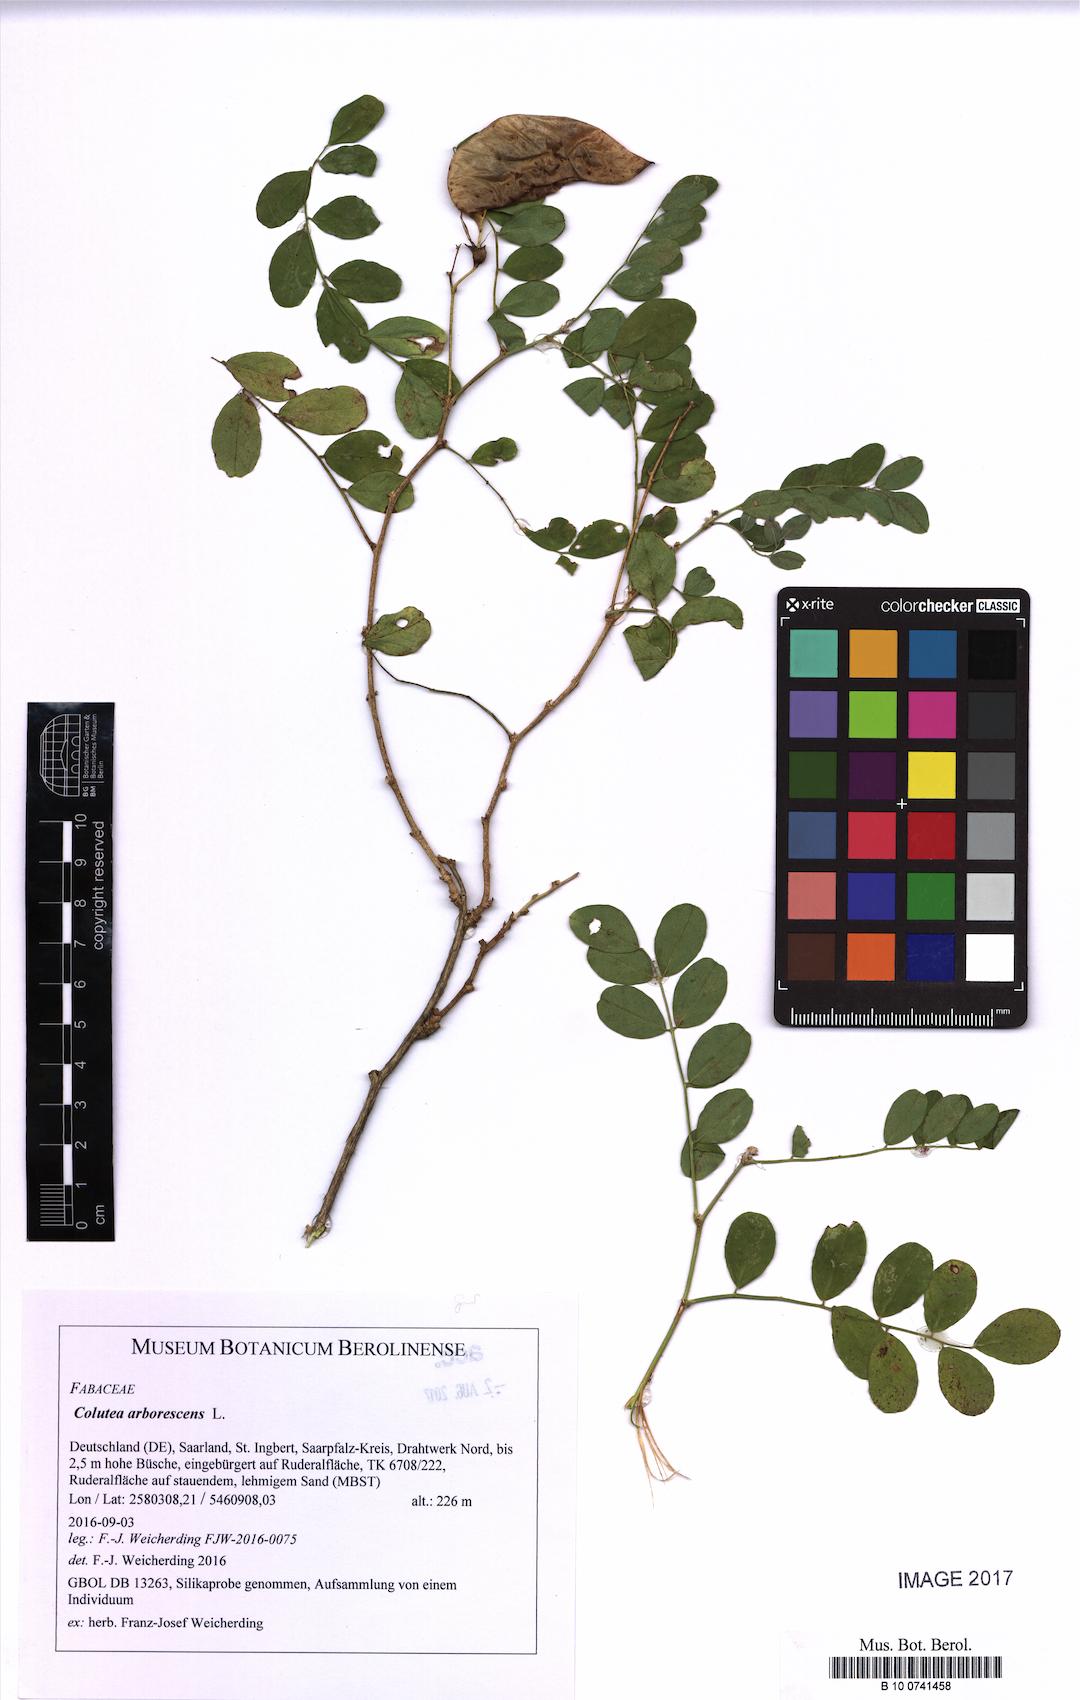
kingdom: Plantae
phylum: Tracheophyta
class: Magnoliopsida
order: Fabales
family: Fabaceae
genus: Colutea
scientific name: Colutea arborescens
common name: Bladder-senna
